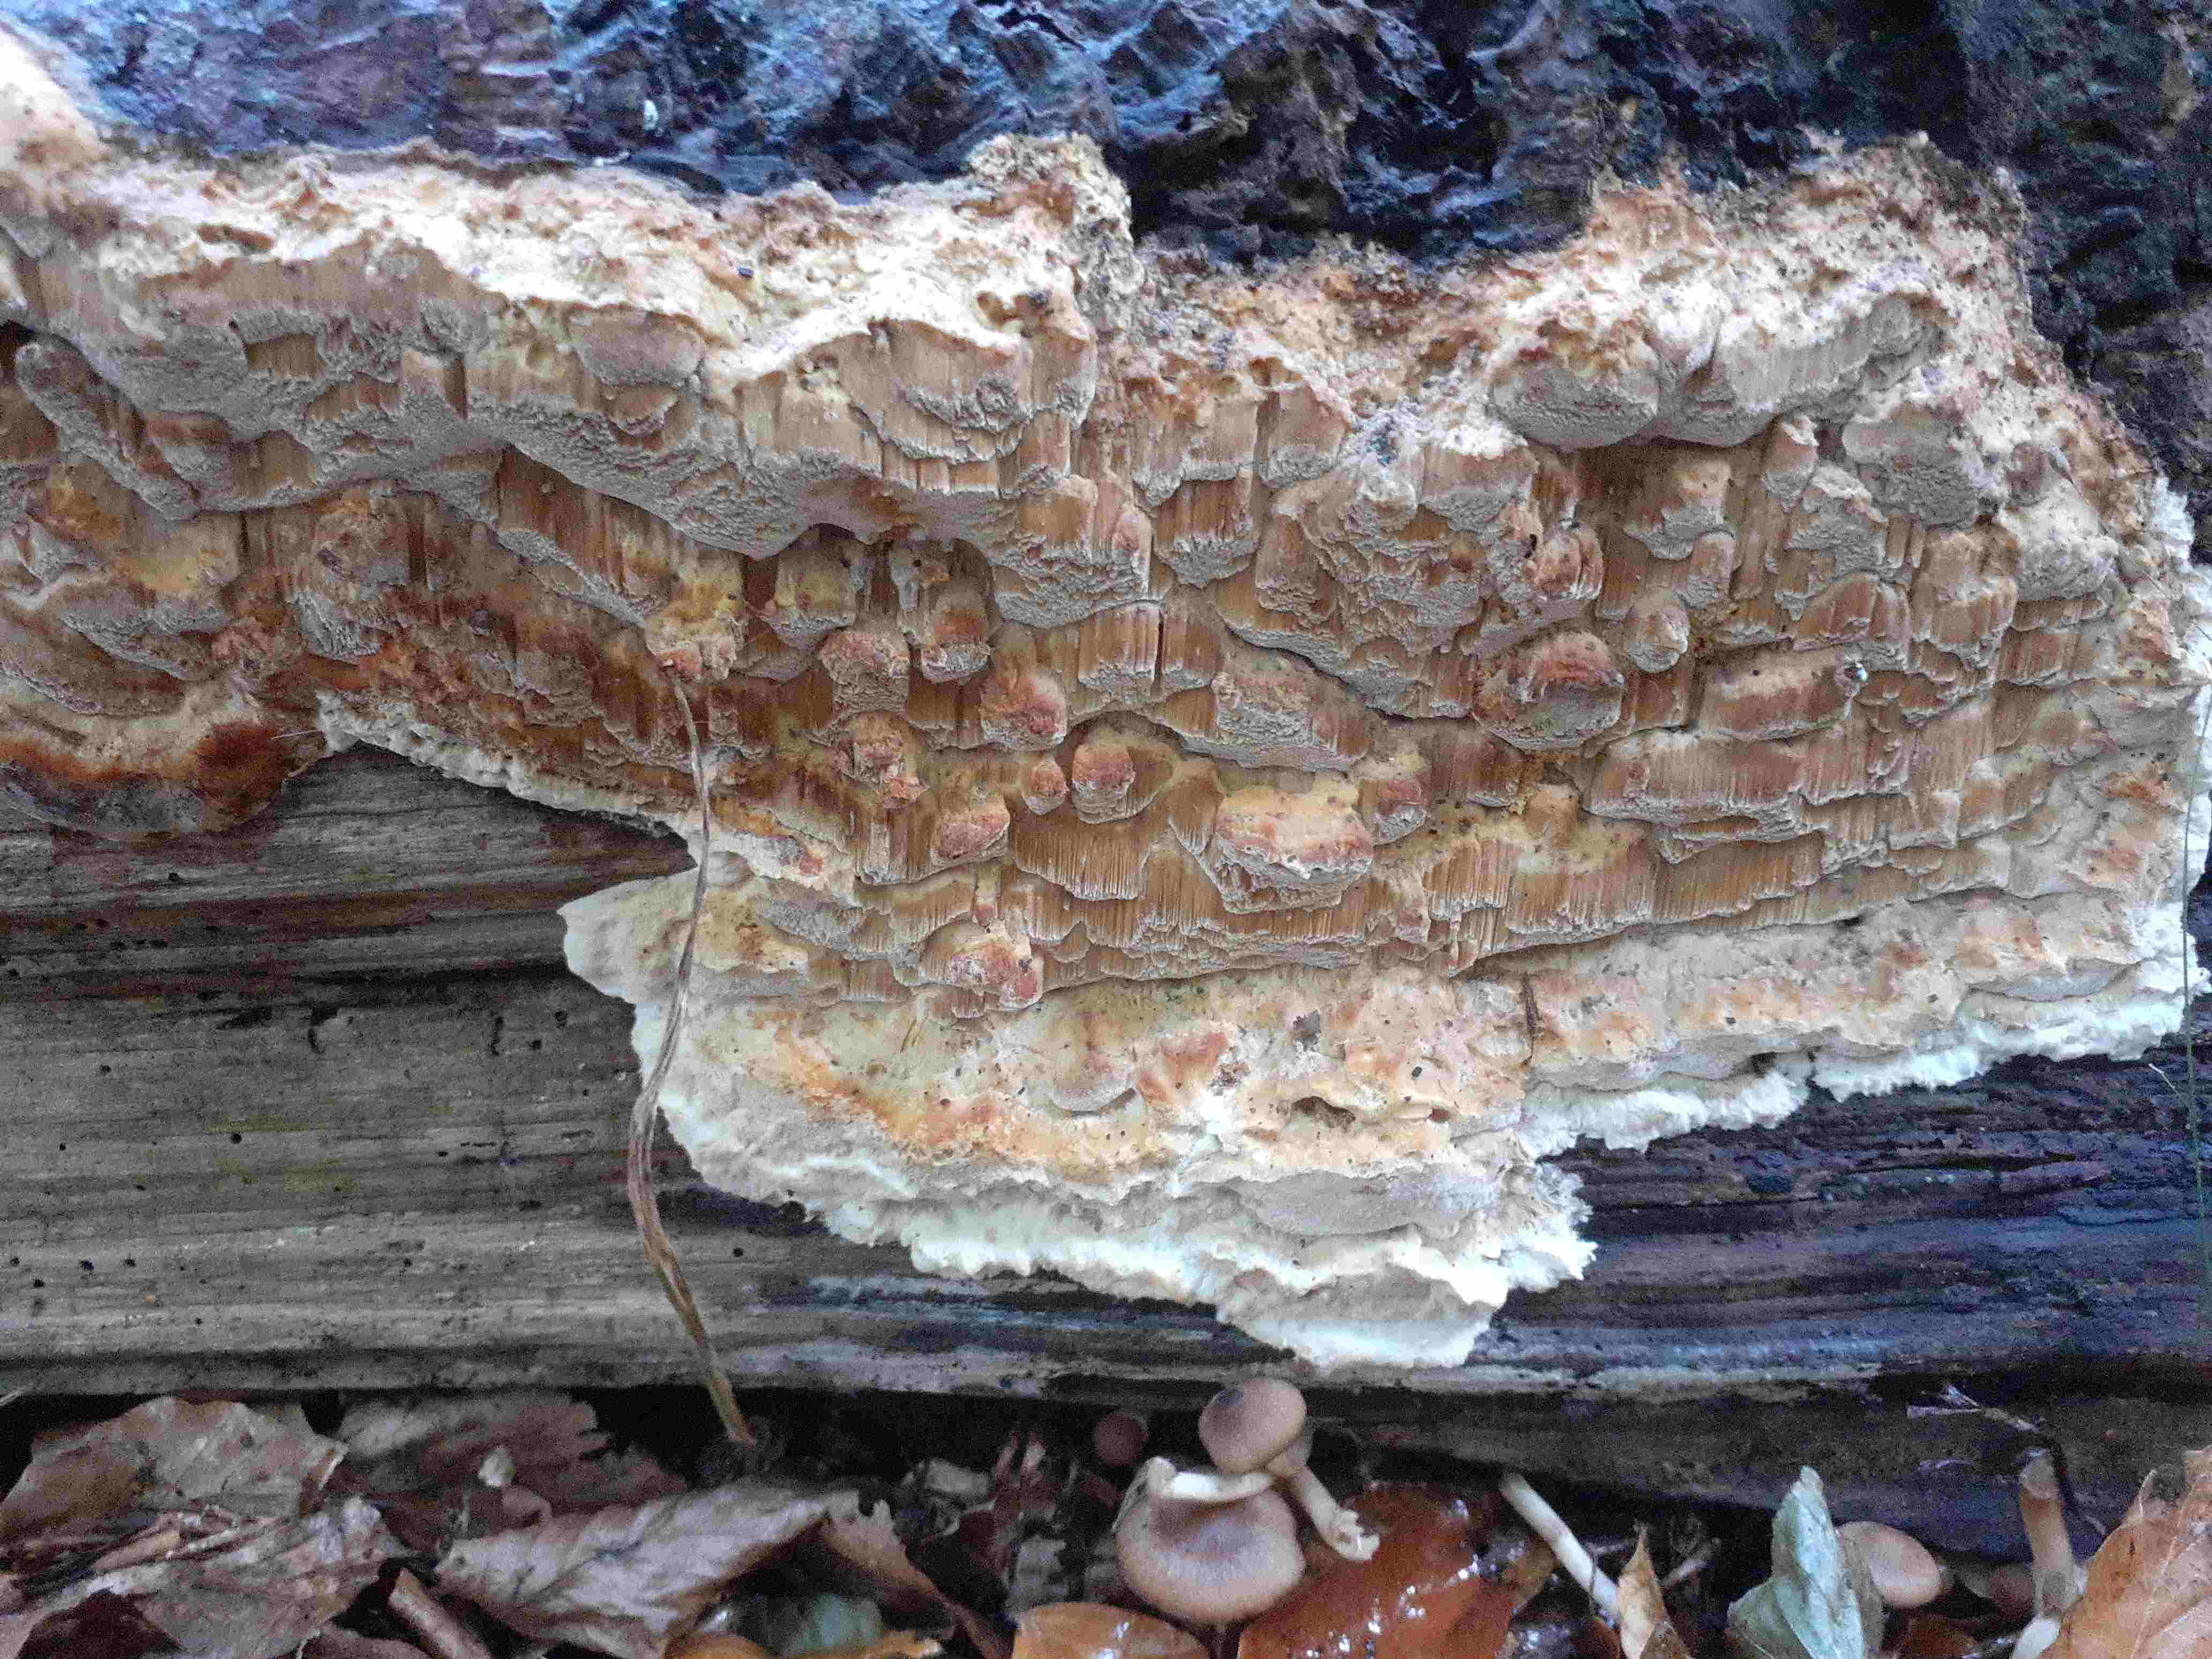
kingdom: Fungi
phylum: Basidiomycota
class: Agaricomycetes
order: Polyporales
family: Steccherinaceae
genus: Antrodiella
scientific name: Antrodiella mentschulensis
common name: abrikosporesvamp
